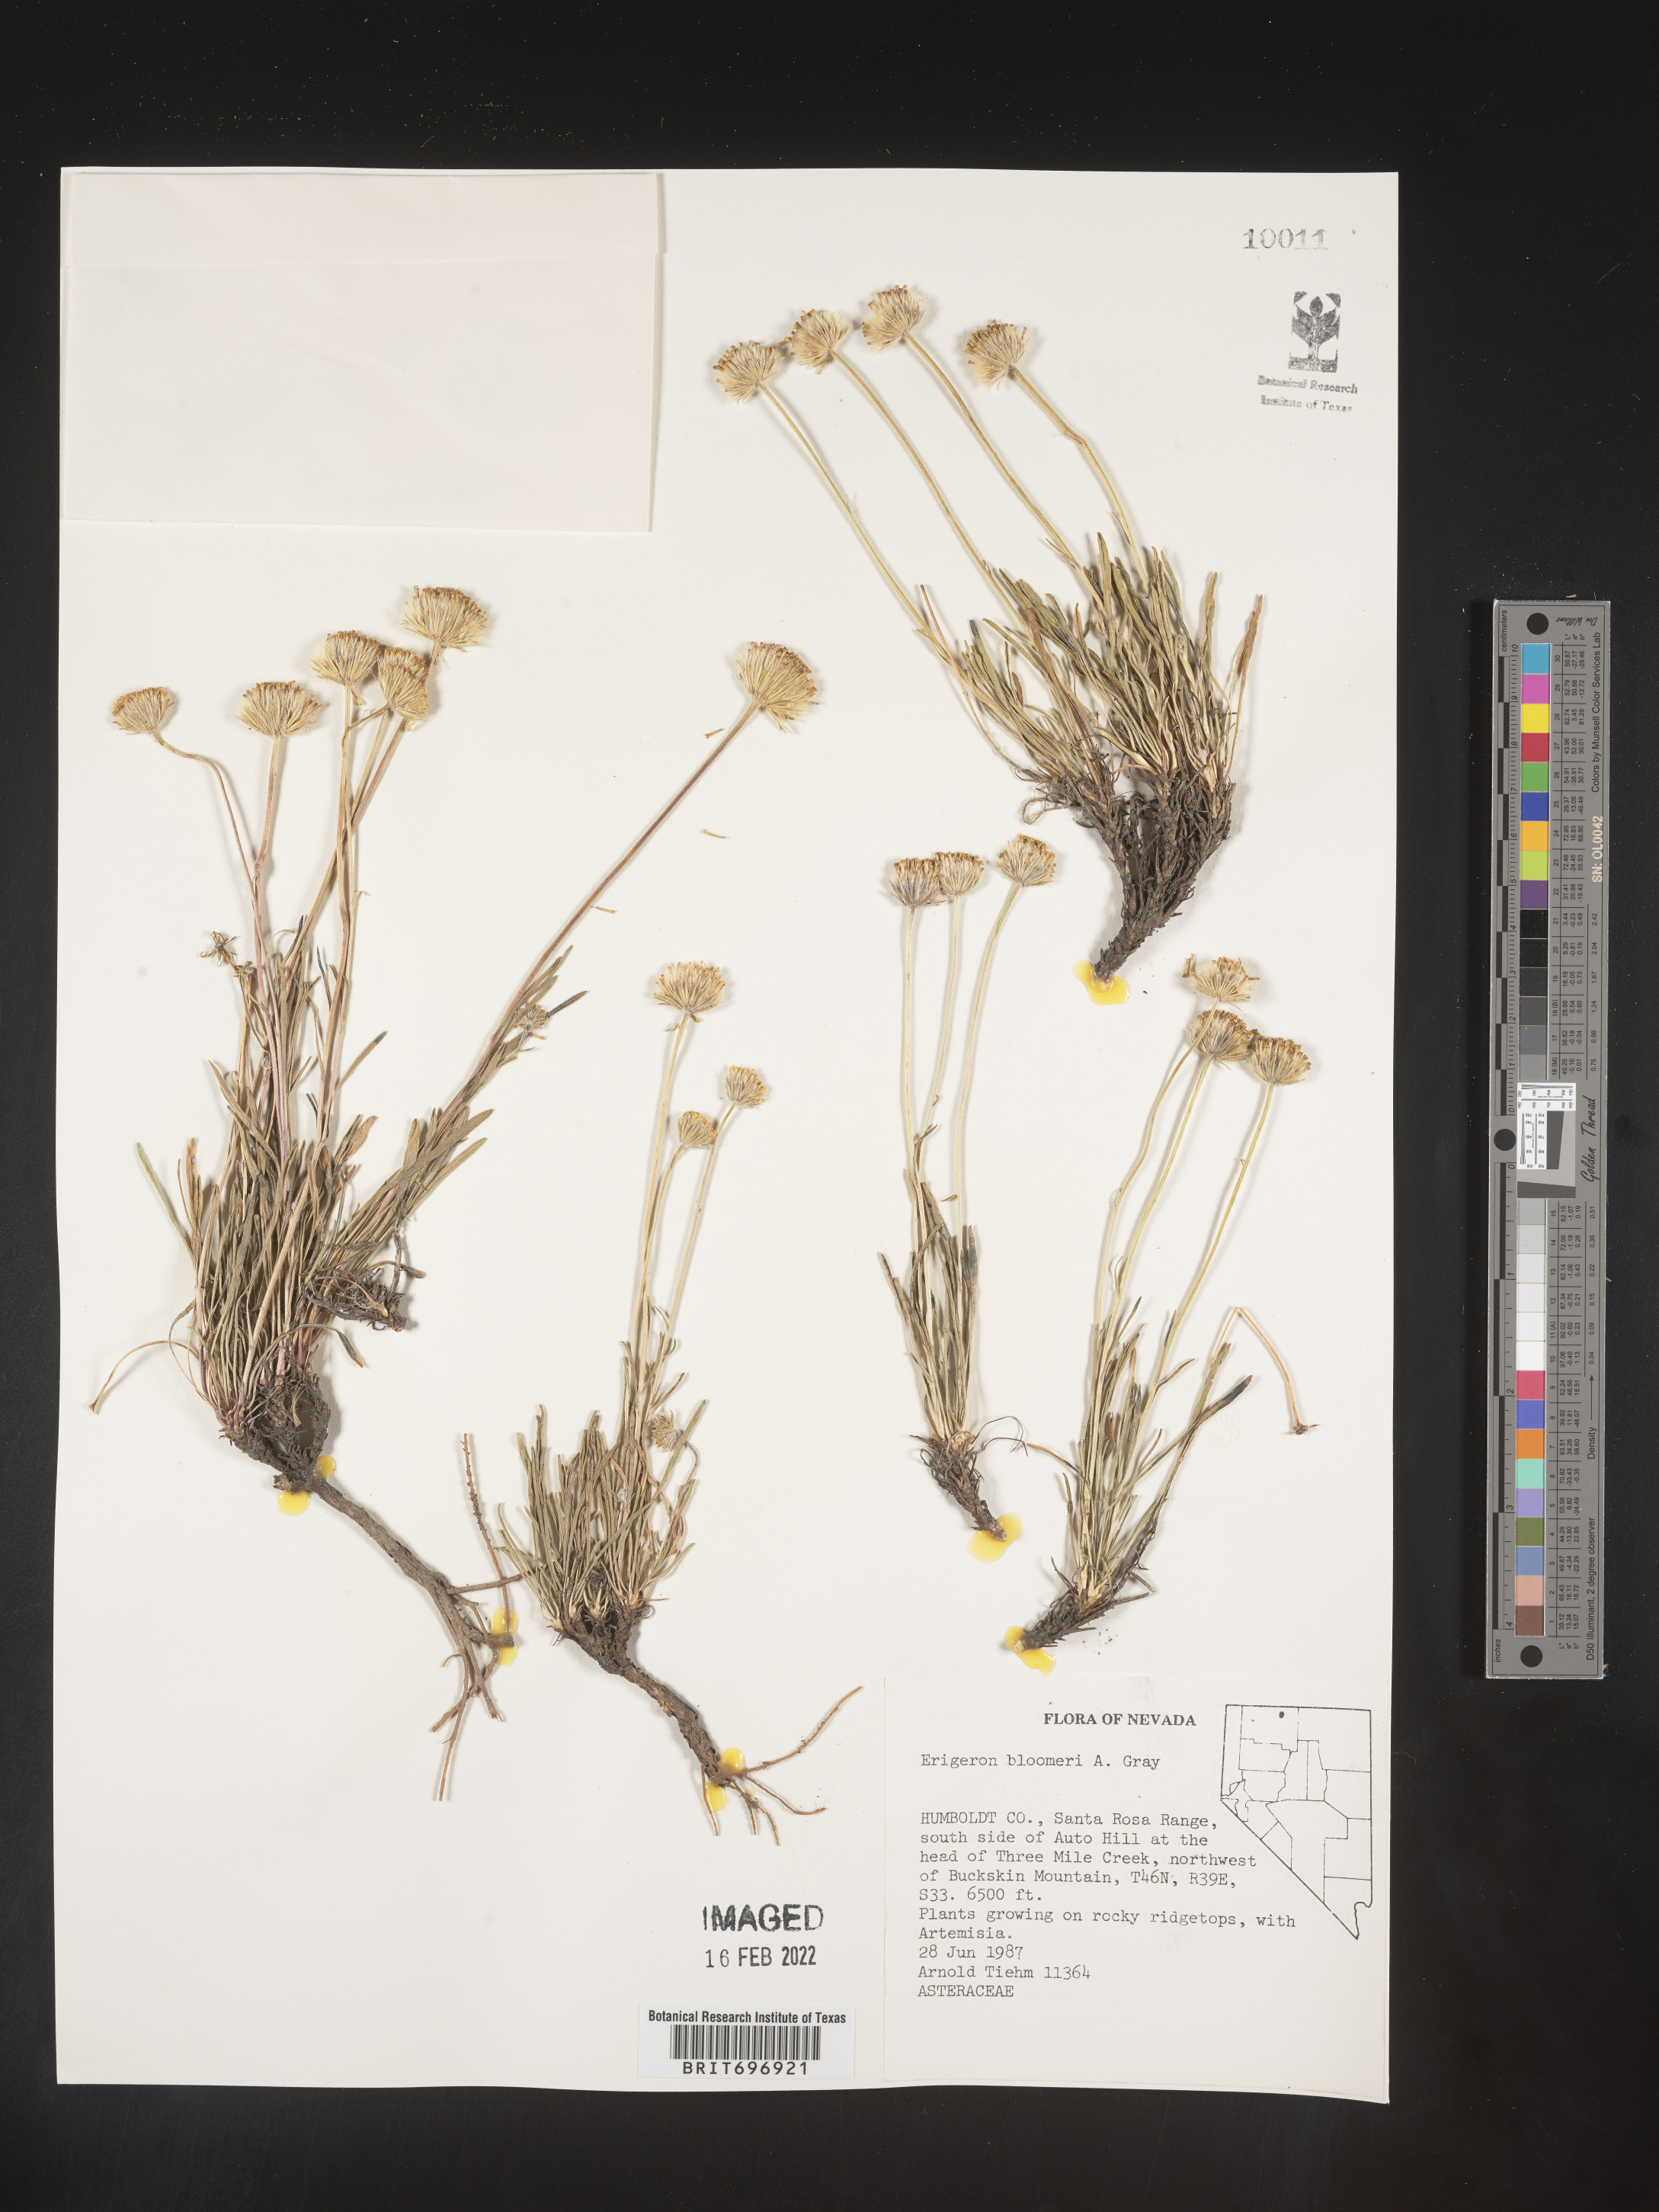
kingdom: Plantae
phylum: Tracheophyta
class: Magnoliopsida
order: Asterales
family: Asteraceae
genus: Erigeron
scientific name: Erigeron bloomeri
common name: Bloomer's fleabane
